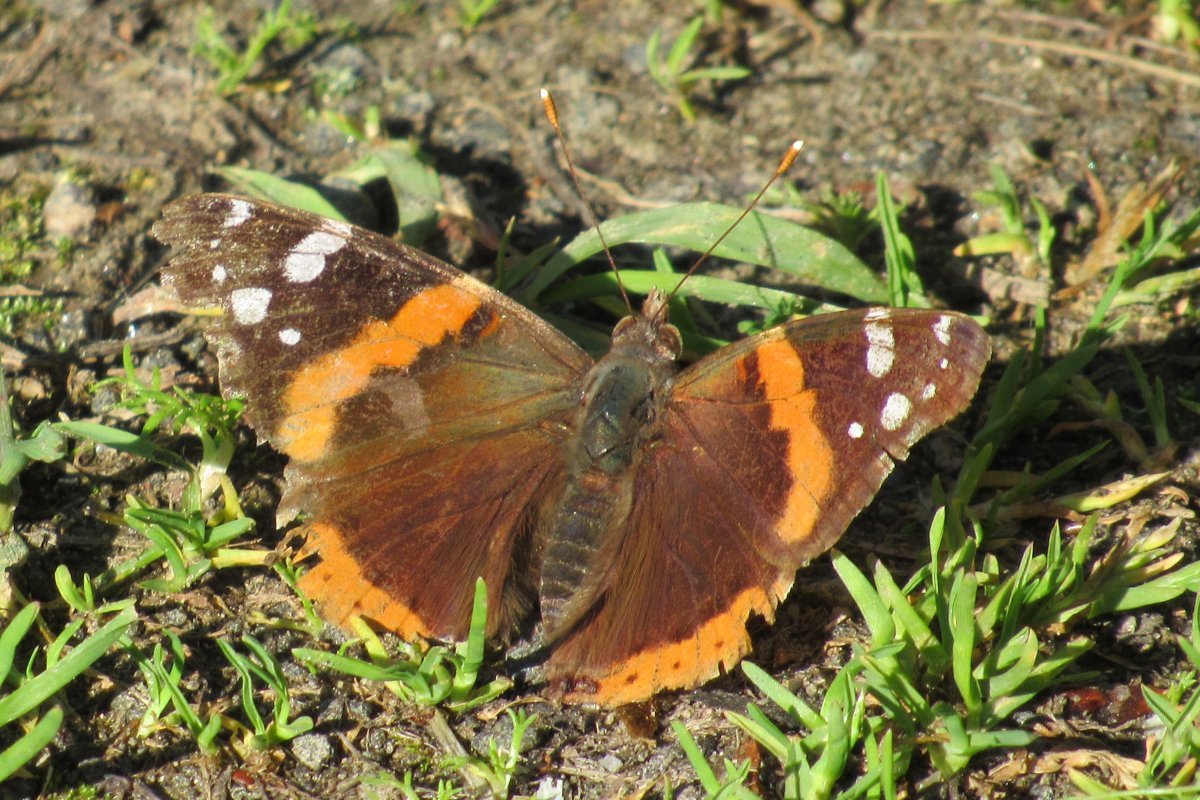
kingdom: Animalia
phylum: Arthropoda
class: Insecta
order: Lepidoptera
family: Nymphalidae
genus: Vanessa
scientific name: Vanessa atalanta
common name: Red Admiral
